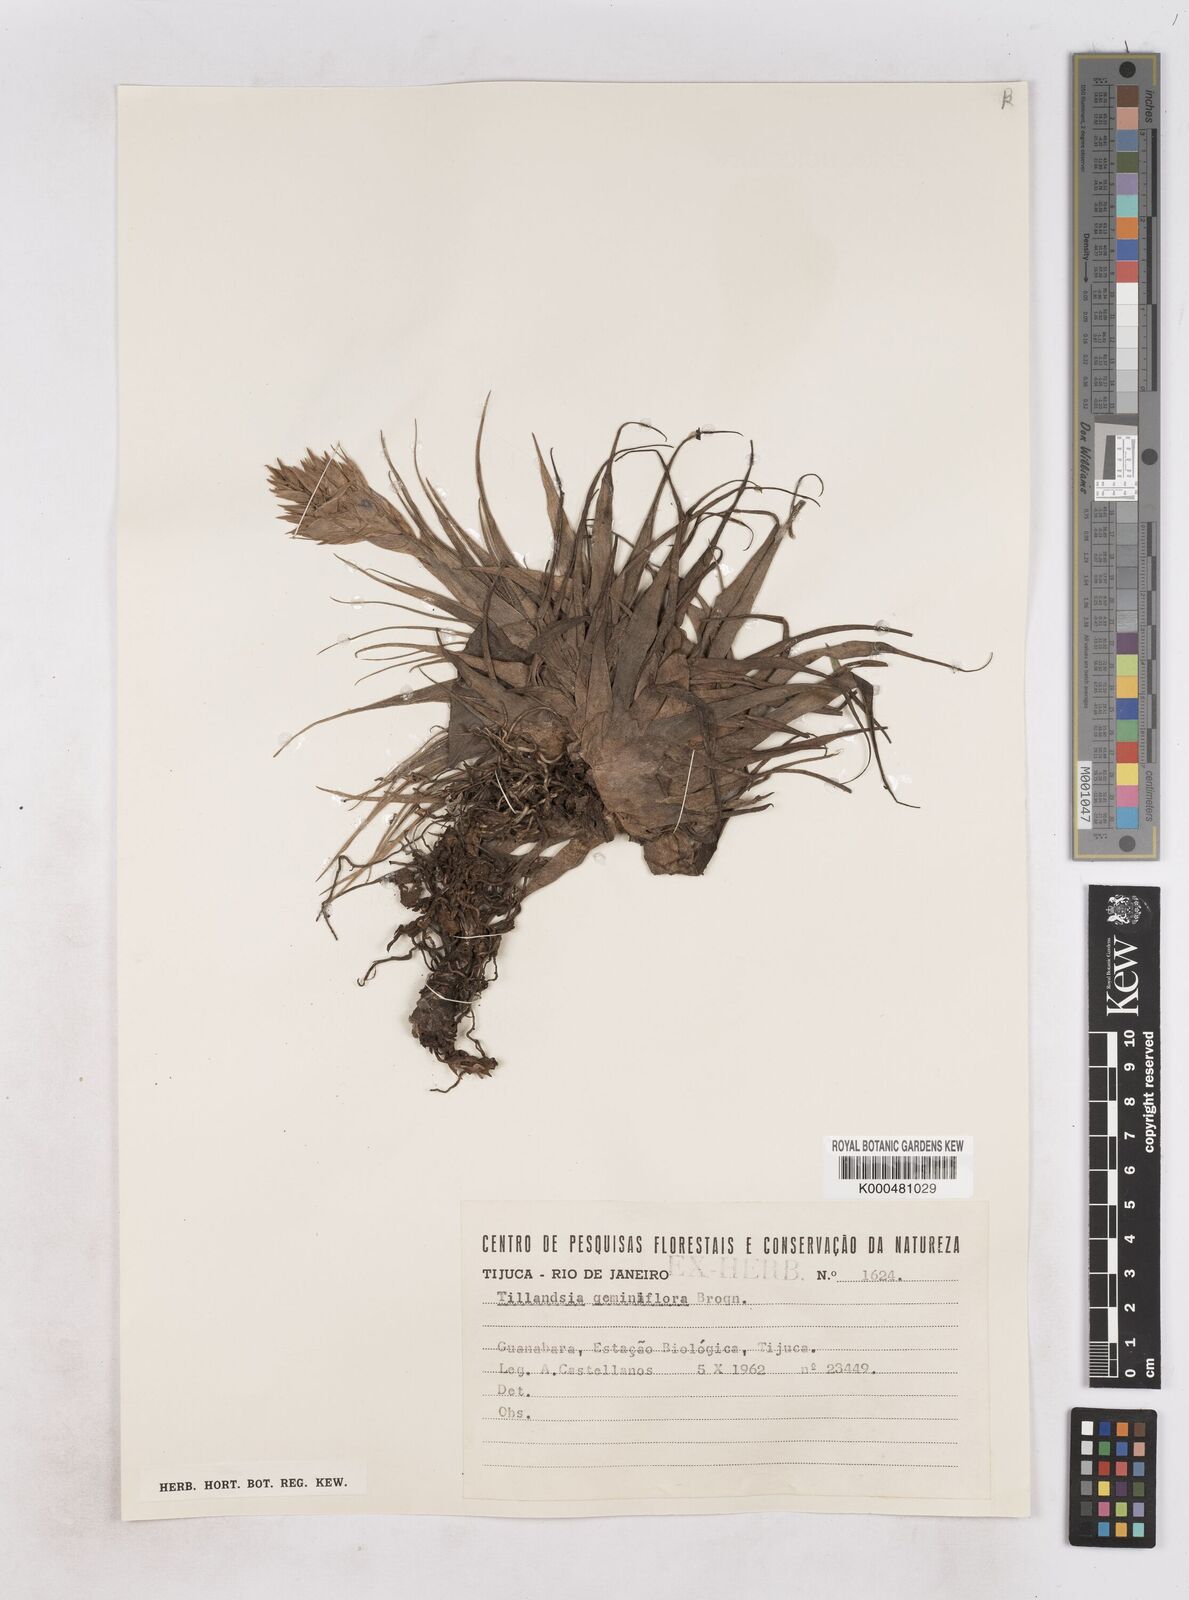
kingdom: Plantae
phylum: Tracheophyta
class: Liliopsida
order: Poales
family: Bromeliaceae
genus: Tillandsia
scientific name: Tillandsia geminiflora
